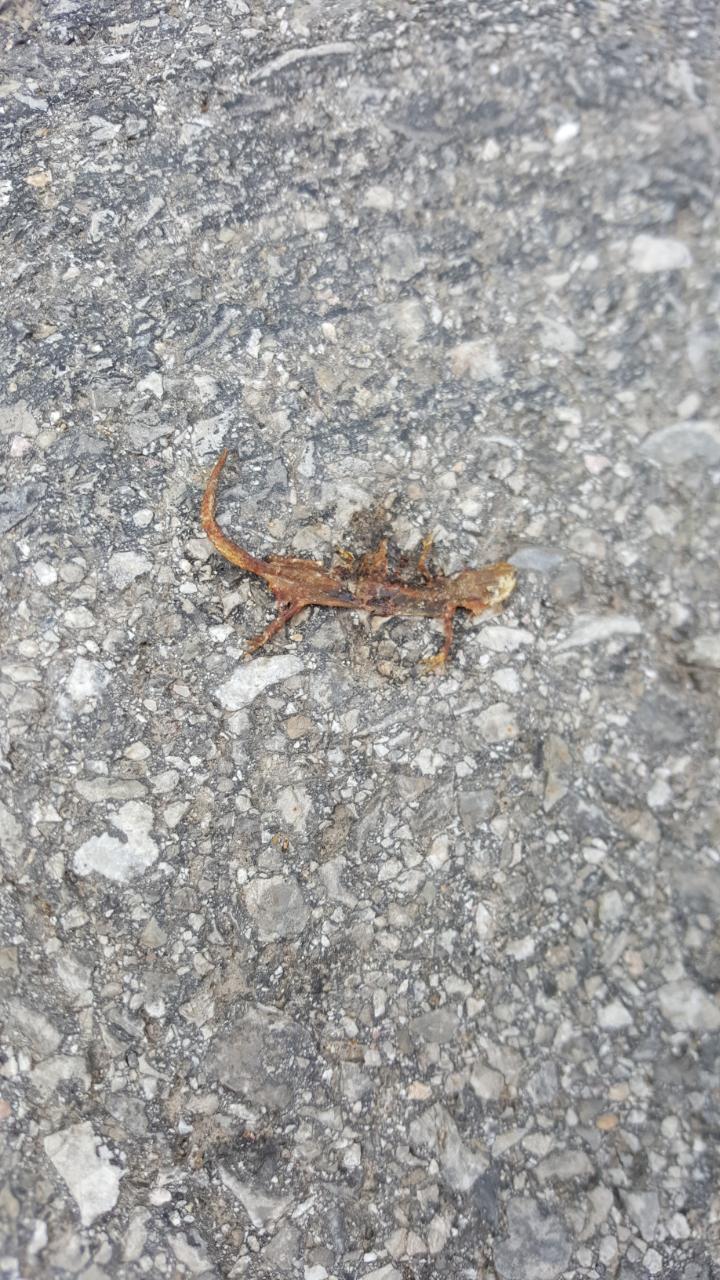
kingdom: Animalia
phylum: Chordata
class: Amphibia
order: Caudata
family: Salamandridae
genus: Lissotriton
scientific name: Lissotriton vulgaris
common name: Smooth newt
